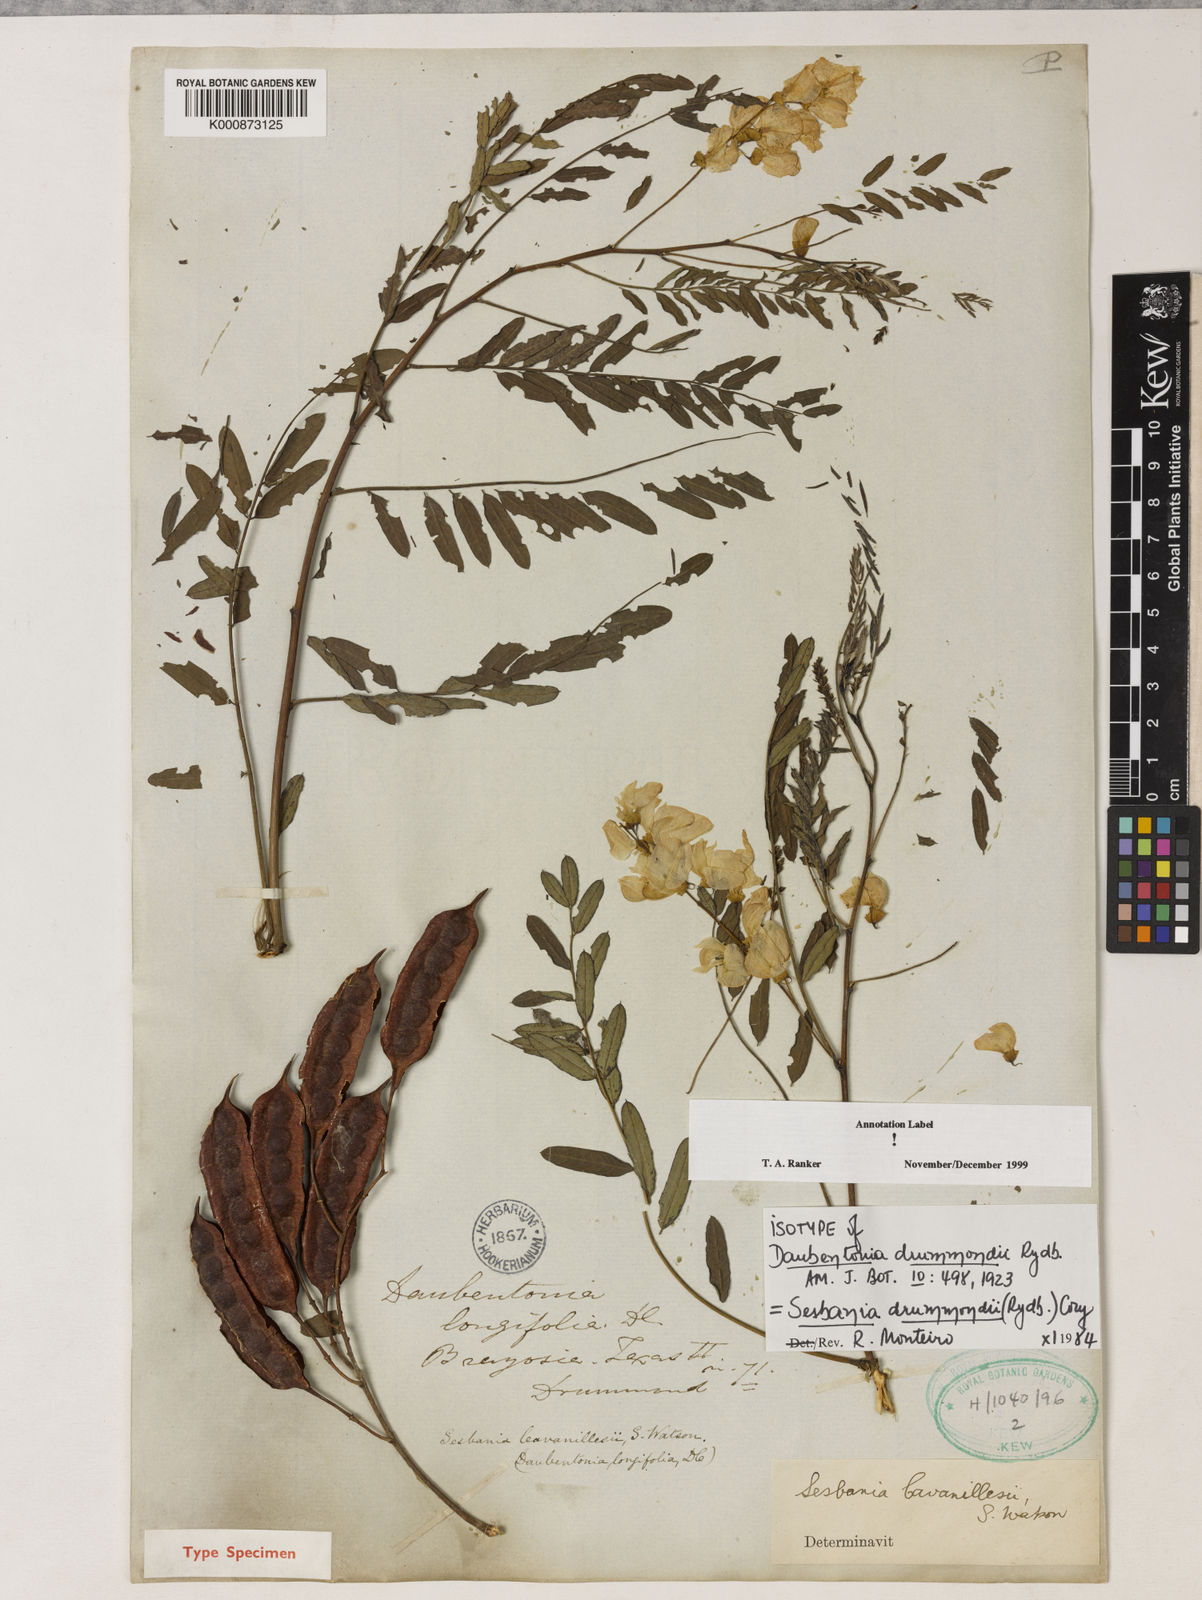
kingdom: Plantae
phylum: Tracheophyta
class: Magnoliopsida
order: Fabales
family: Fabaceae
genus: Sesbania
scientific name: Sesbania drummondii
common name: Poison-bean
